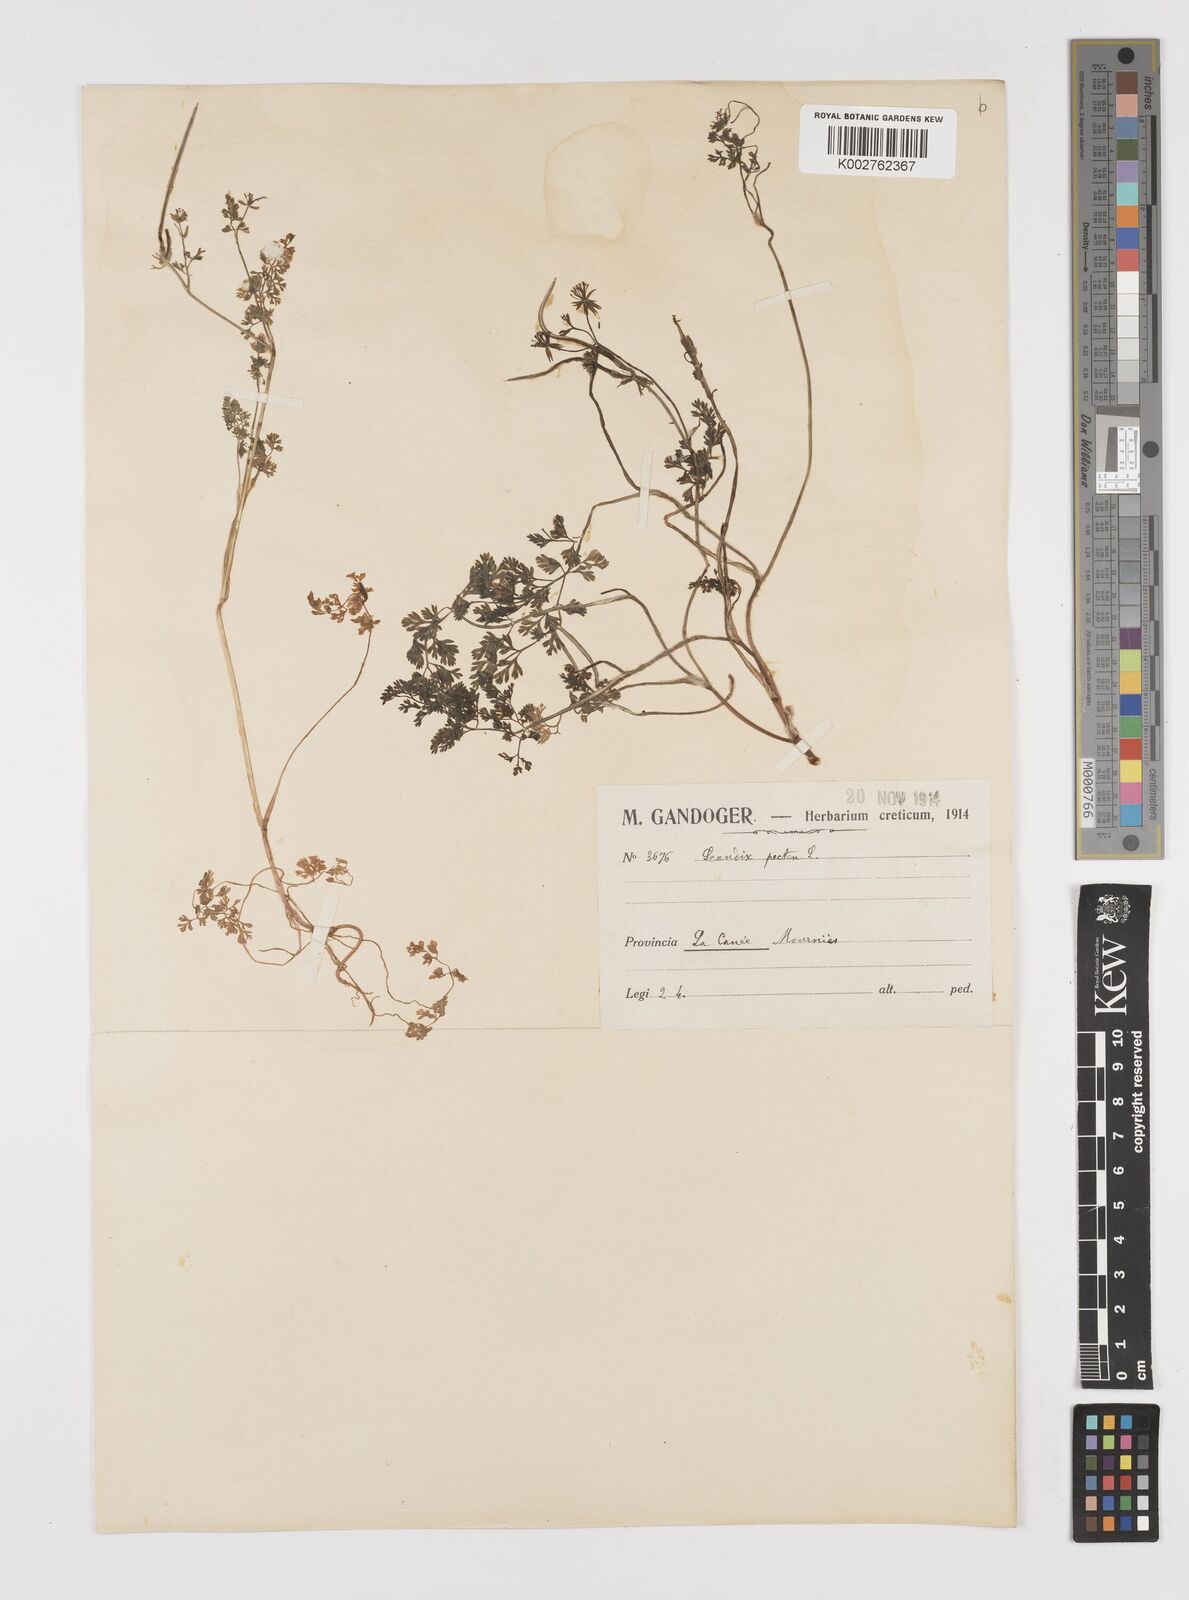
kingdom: Plantae
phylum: Tracheophyta
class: Magnoliopsida
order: Apiales
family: Apiaceae
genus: Scandix
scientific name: Scandix pecten-veneris
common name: Shepherd's-needle
